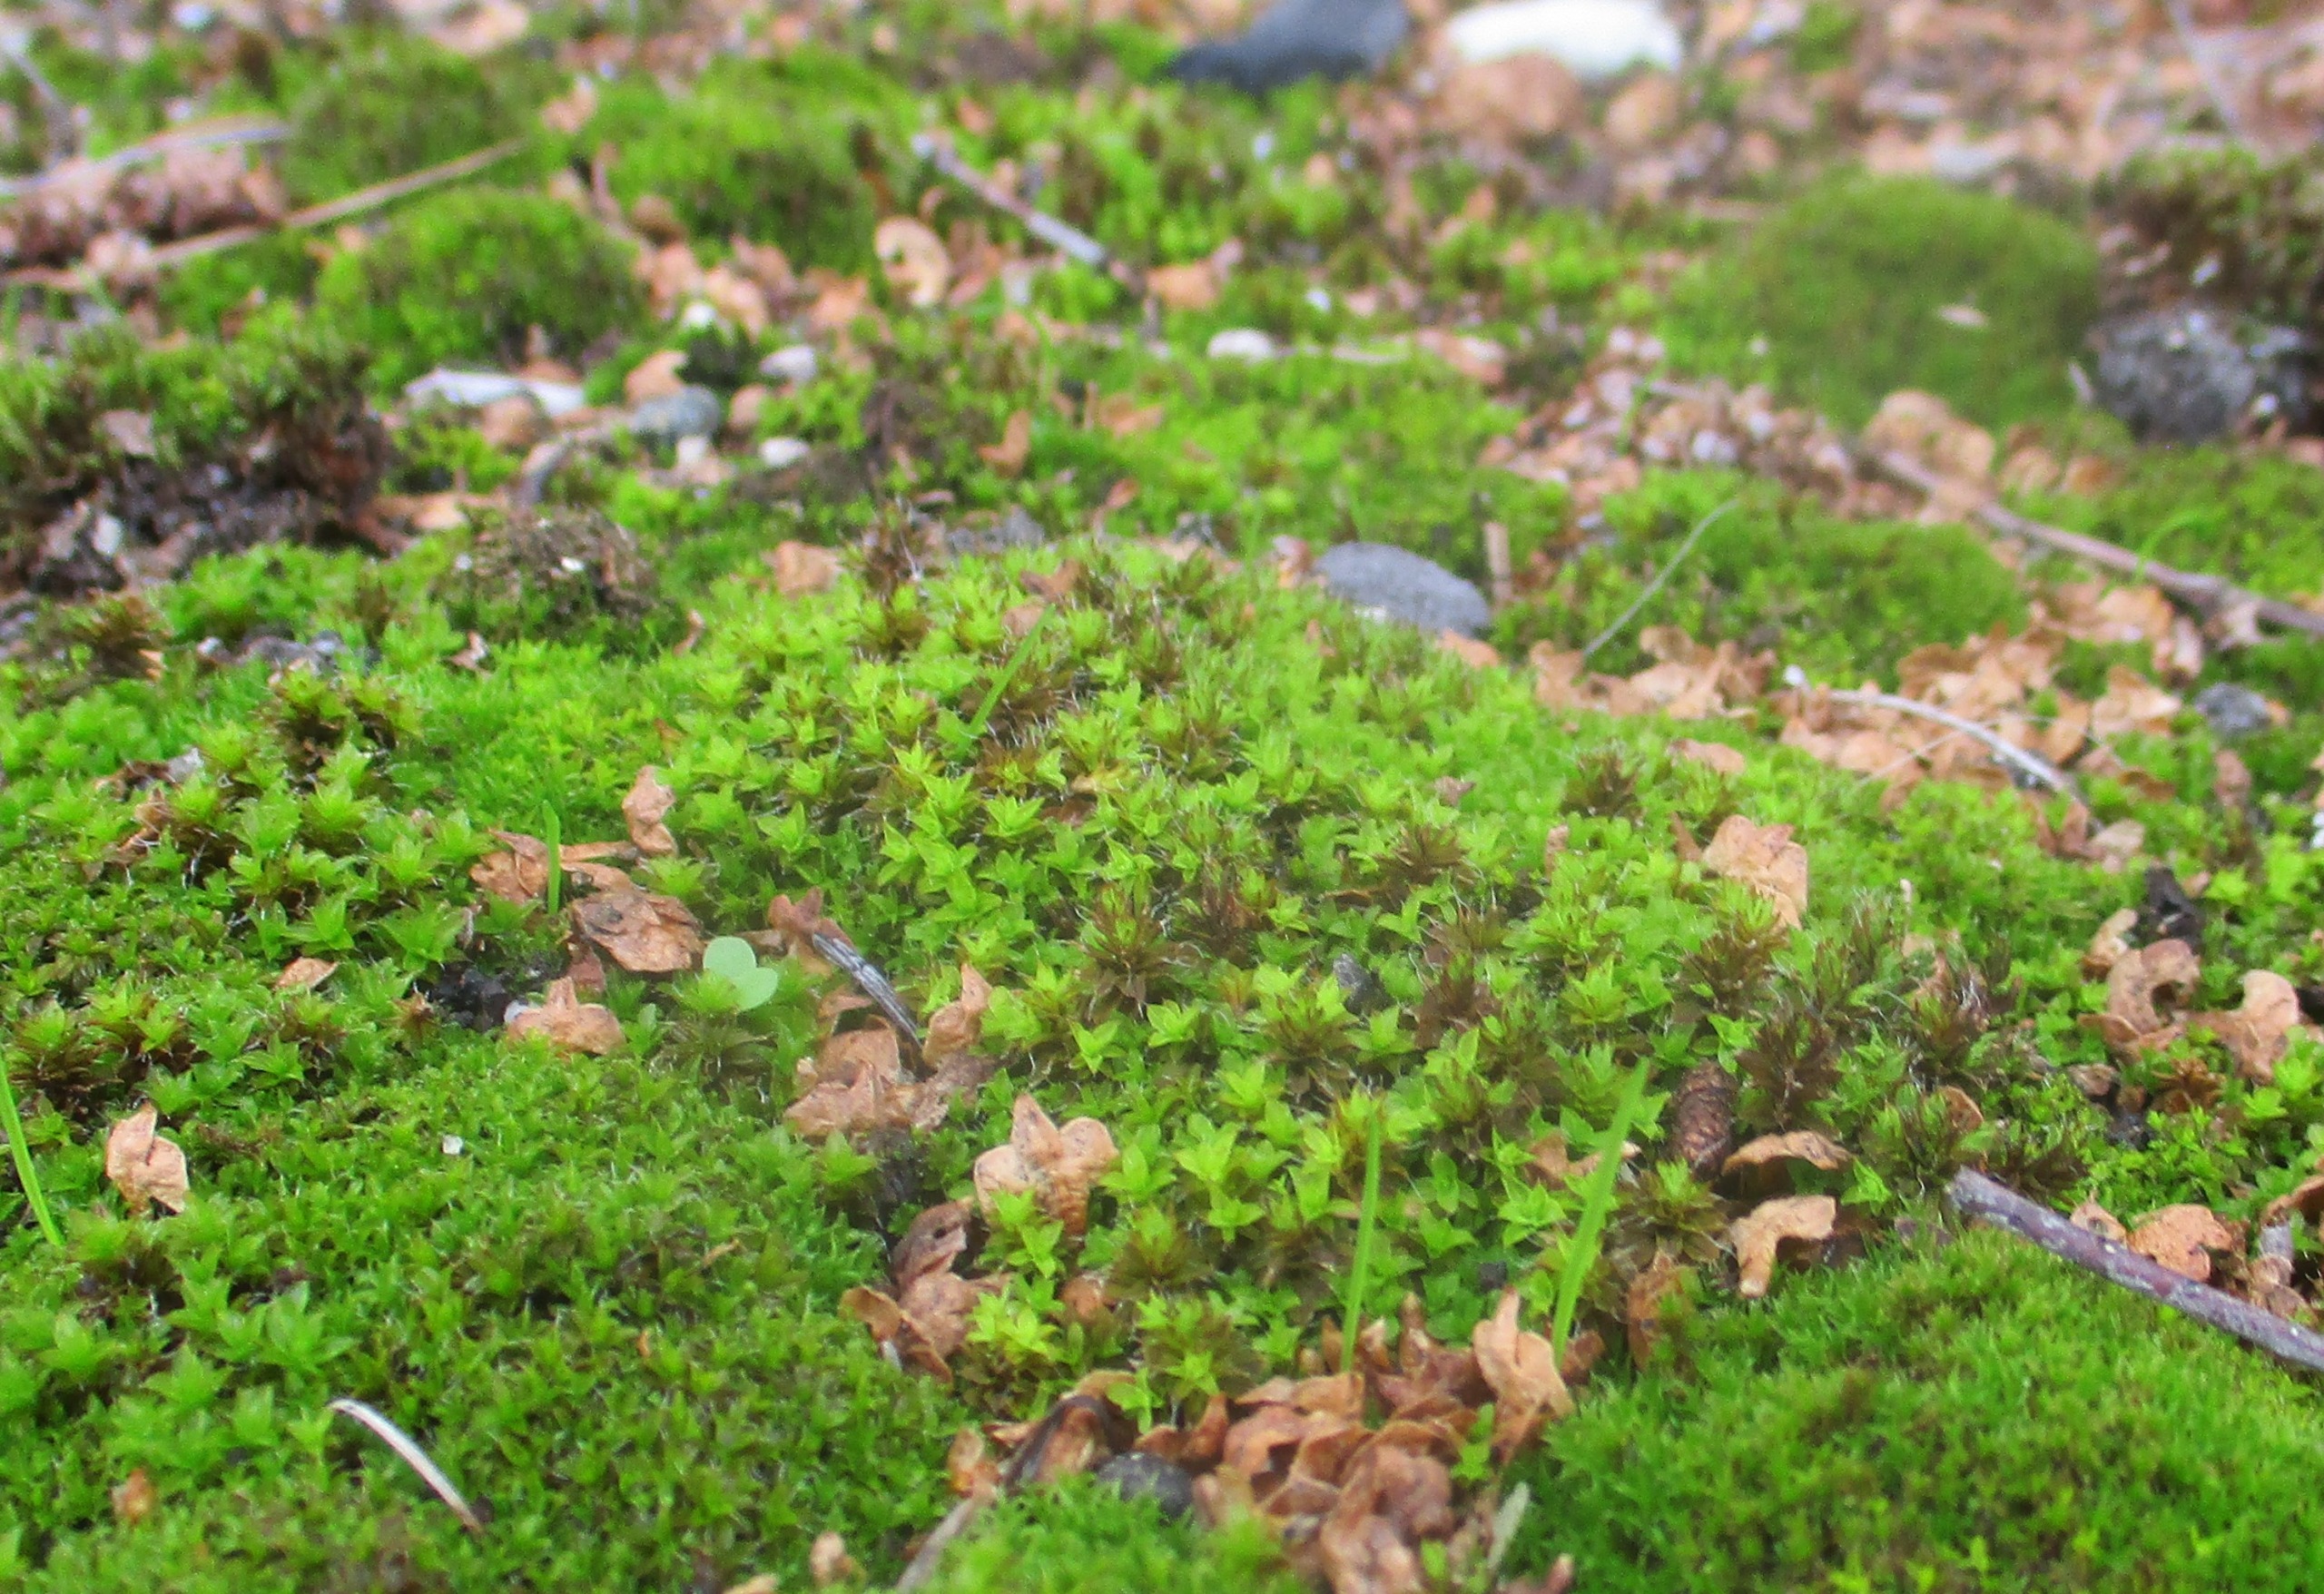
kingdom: Plantae
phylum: Bryophyta
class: Bryopsida
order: Pottiales
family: Pottiaceae
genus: Syntrichia
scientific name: Syntrichia
